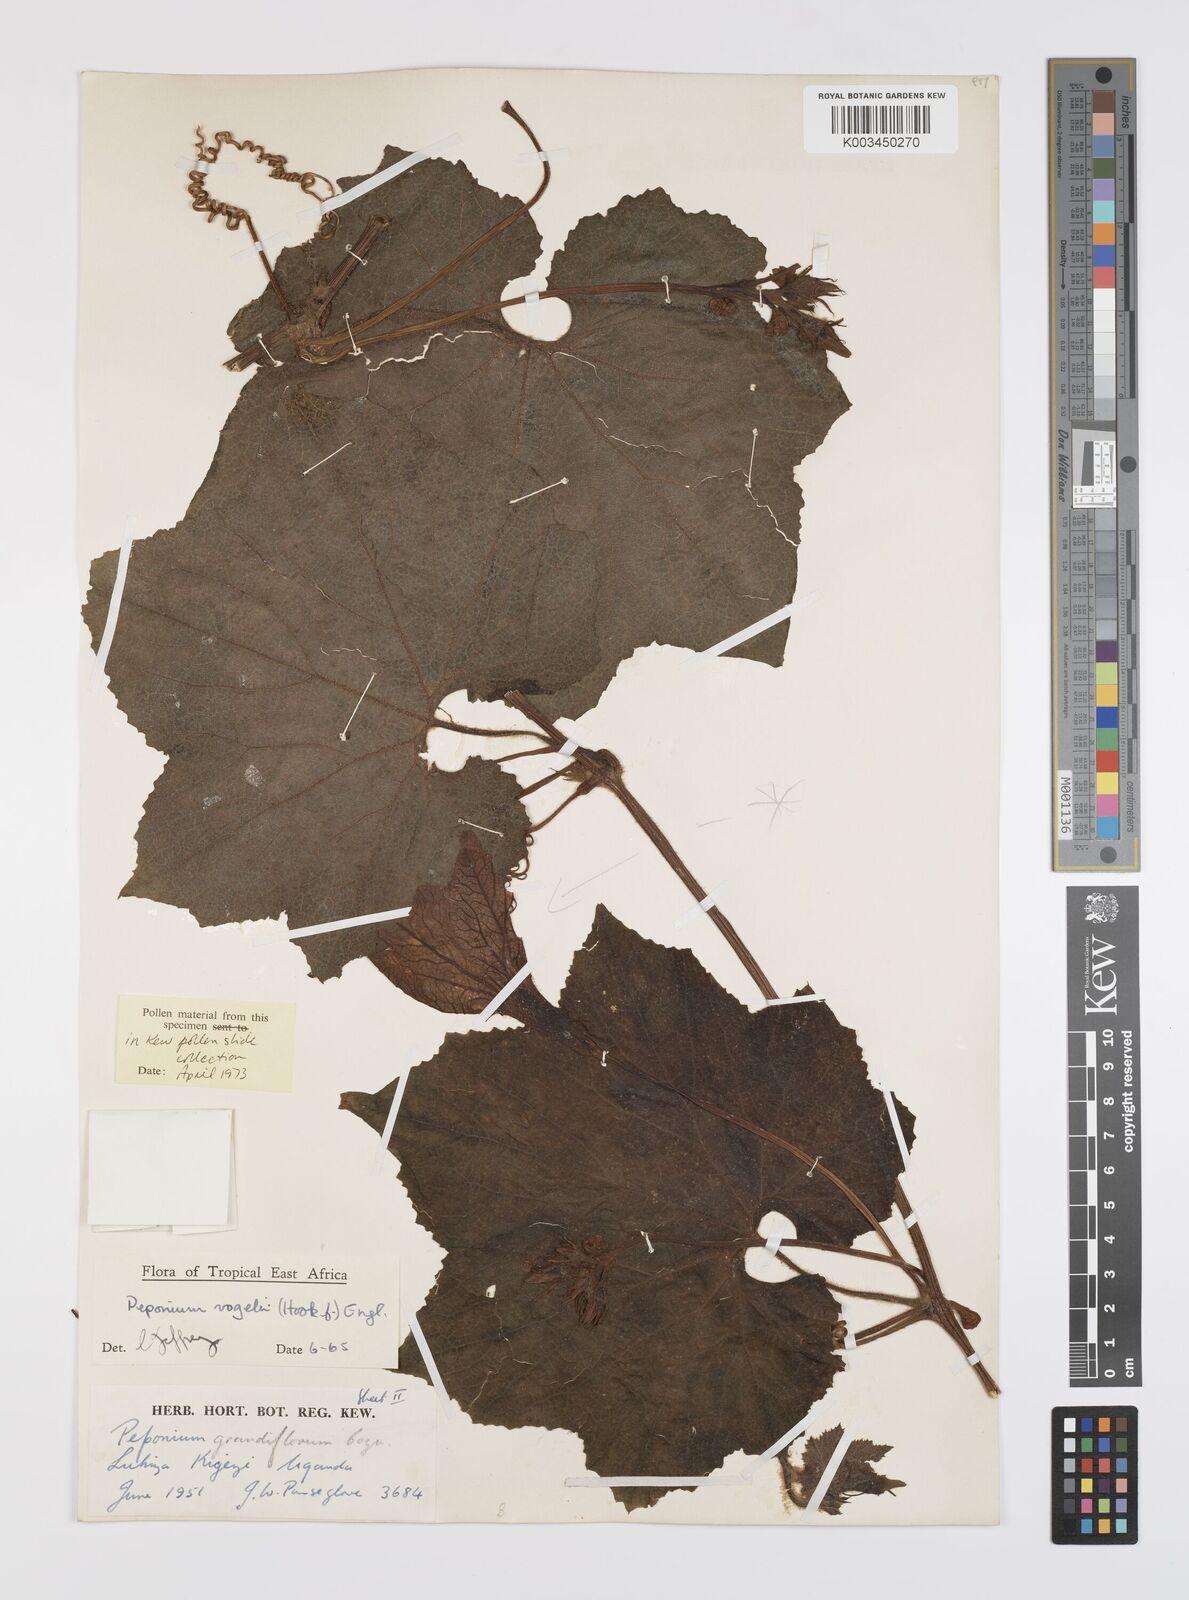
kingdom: Plantae
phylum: Tracheophyta
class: Magnoliopsida
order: Cucurbitales
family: Cucurbitaceae
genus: Peponium
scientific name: Peponium vogelii
